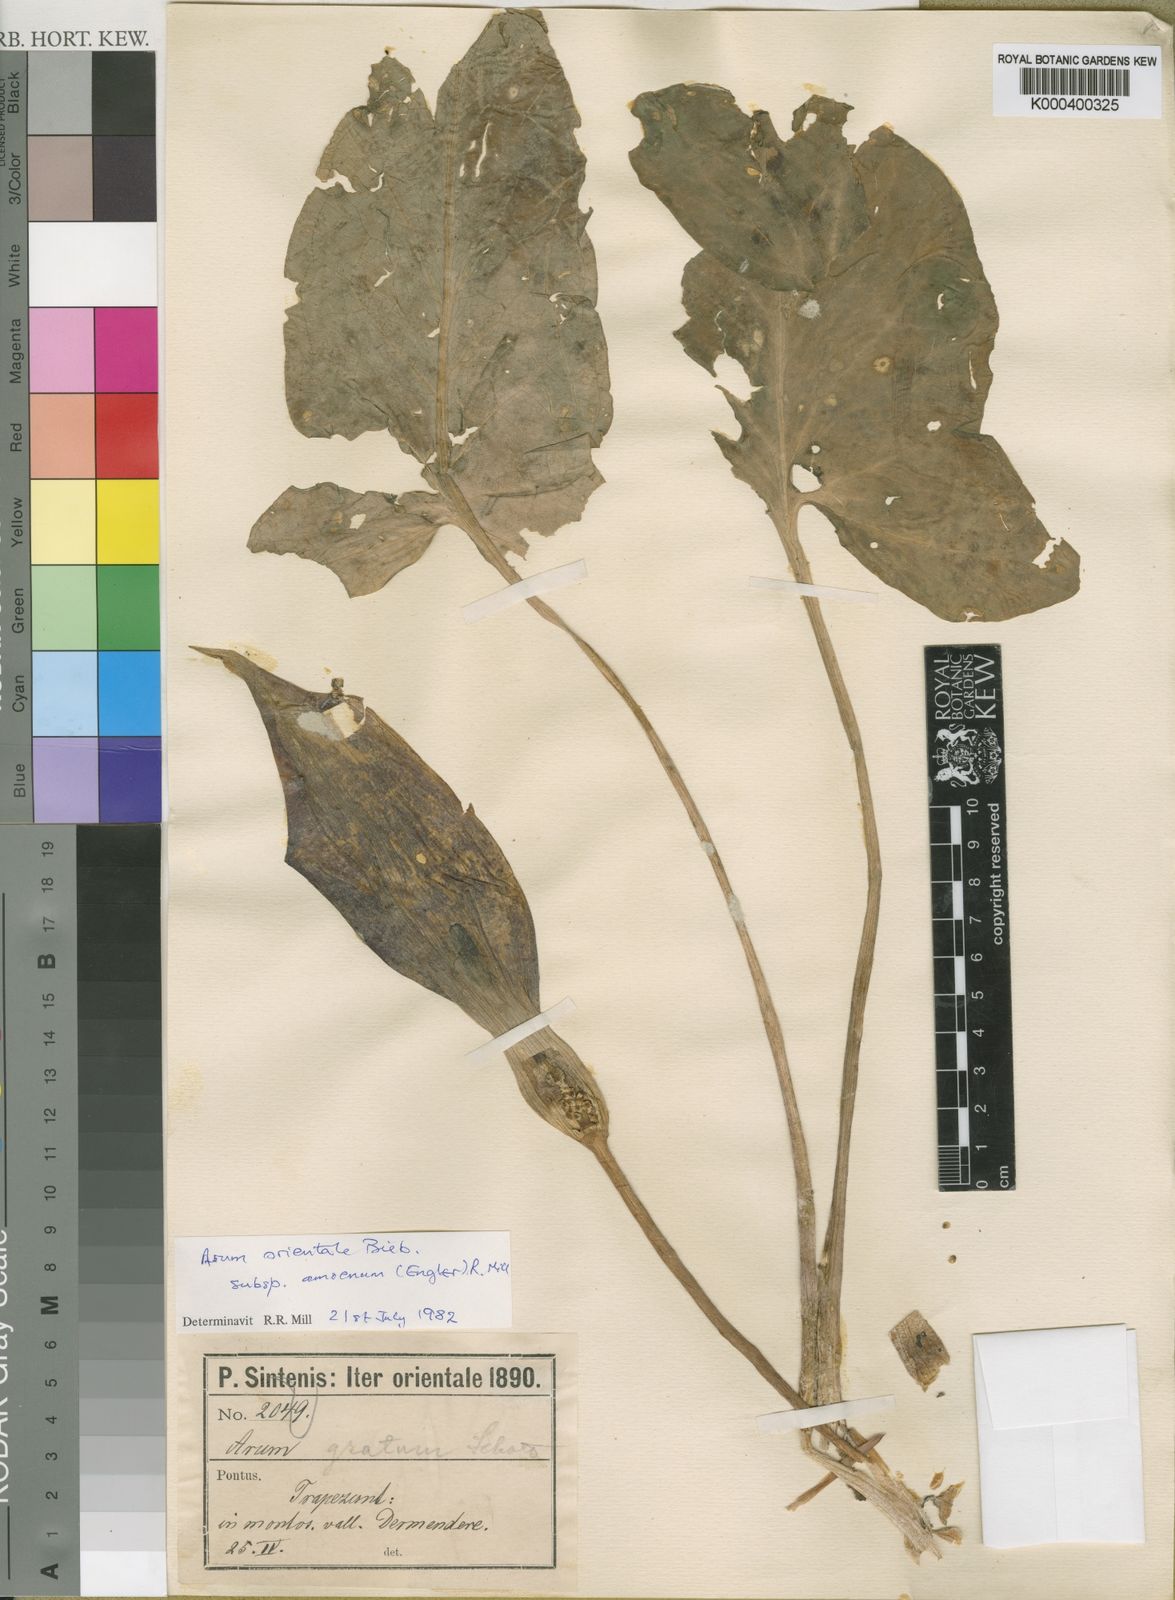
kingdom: Plantae
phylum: Tracheophyta
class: Liliopsida
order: Alismatales
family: Araceae
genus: Arum
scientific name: Arum maculatum
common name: Lords-and-ladies
